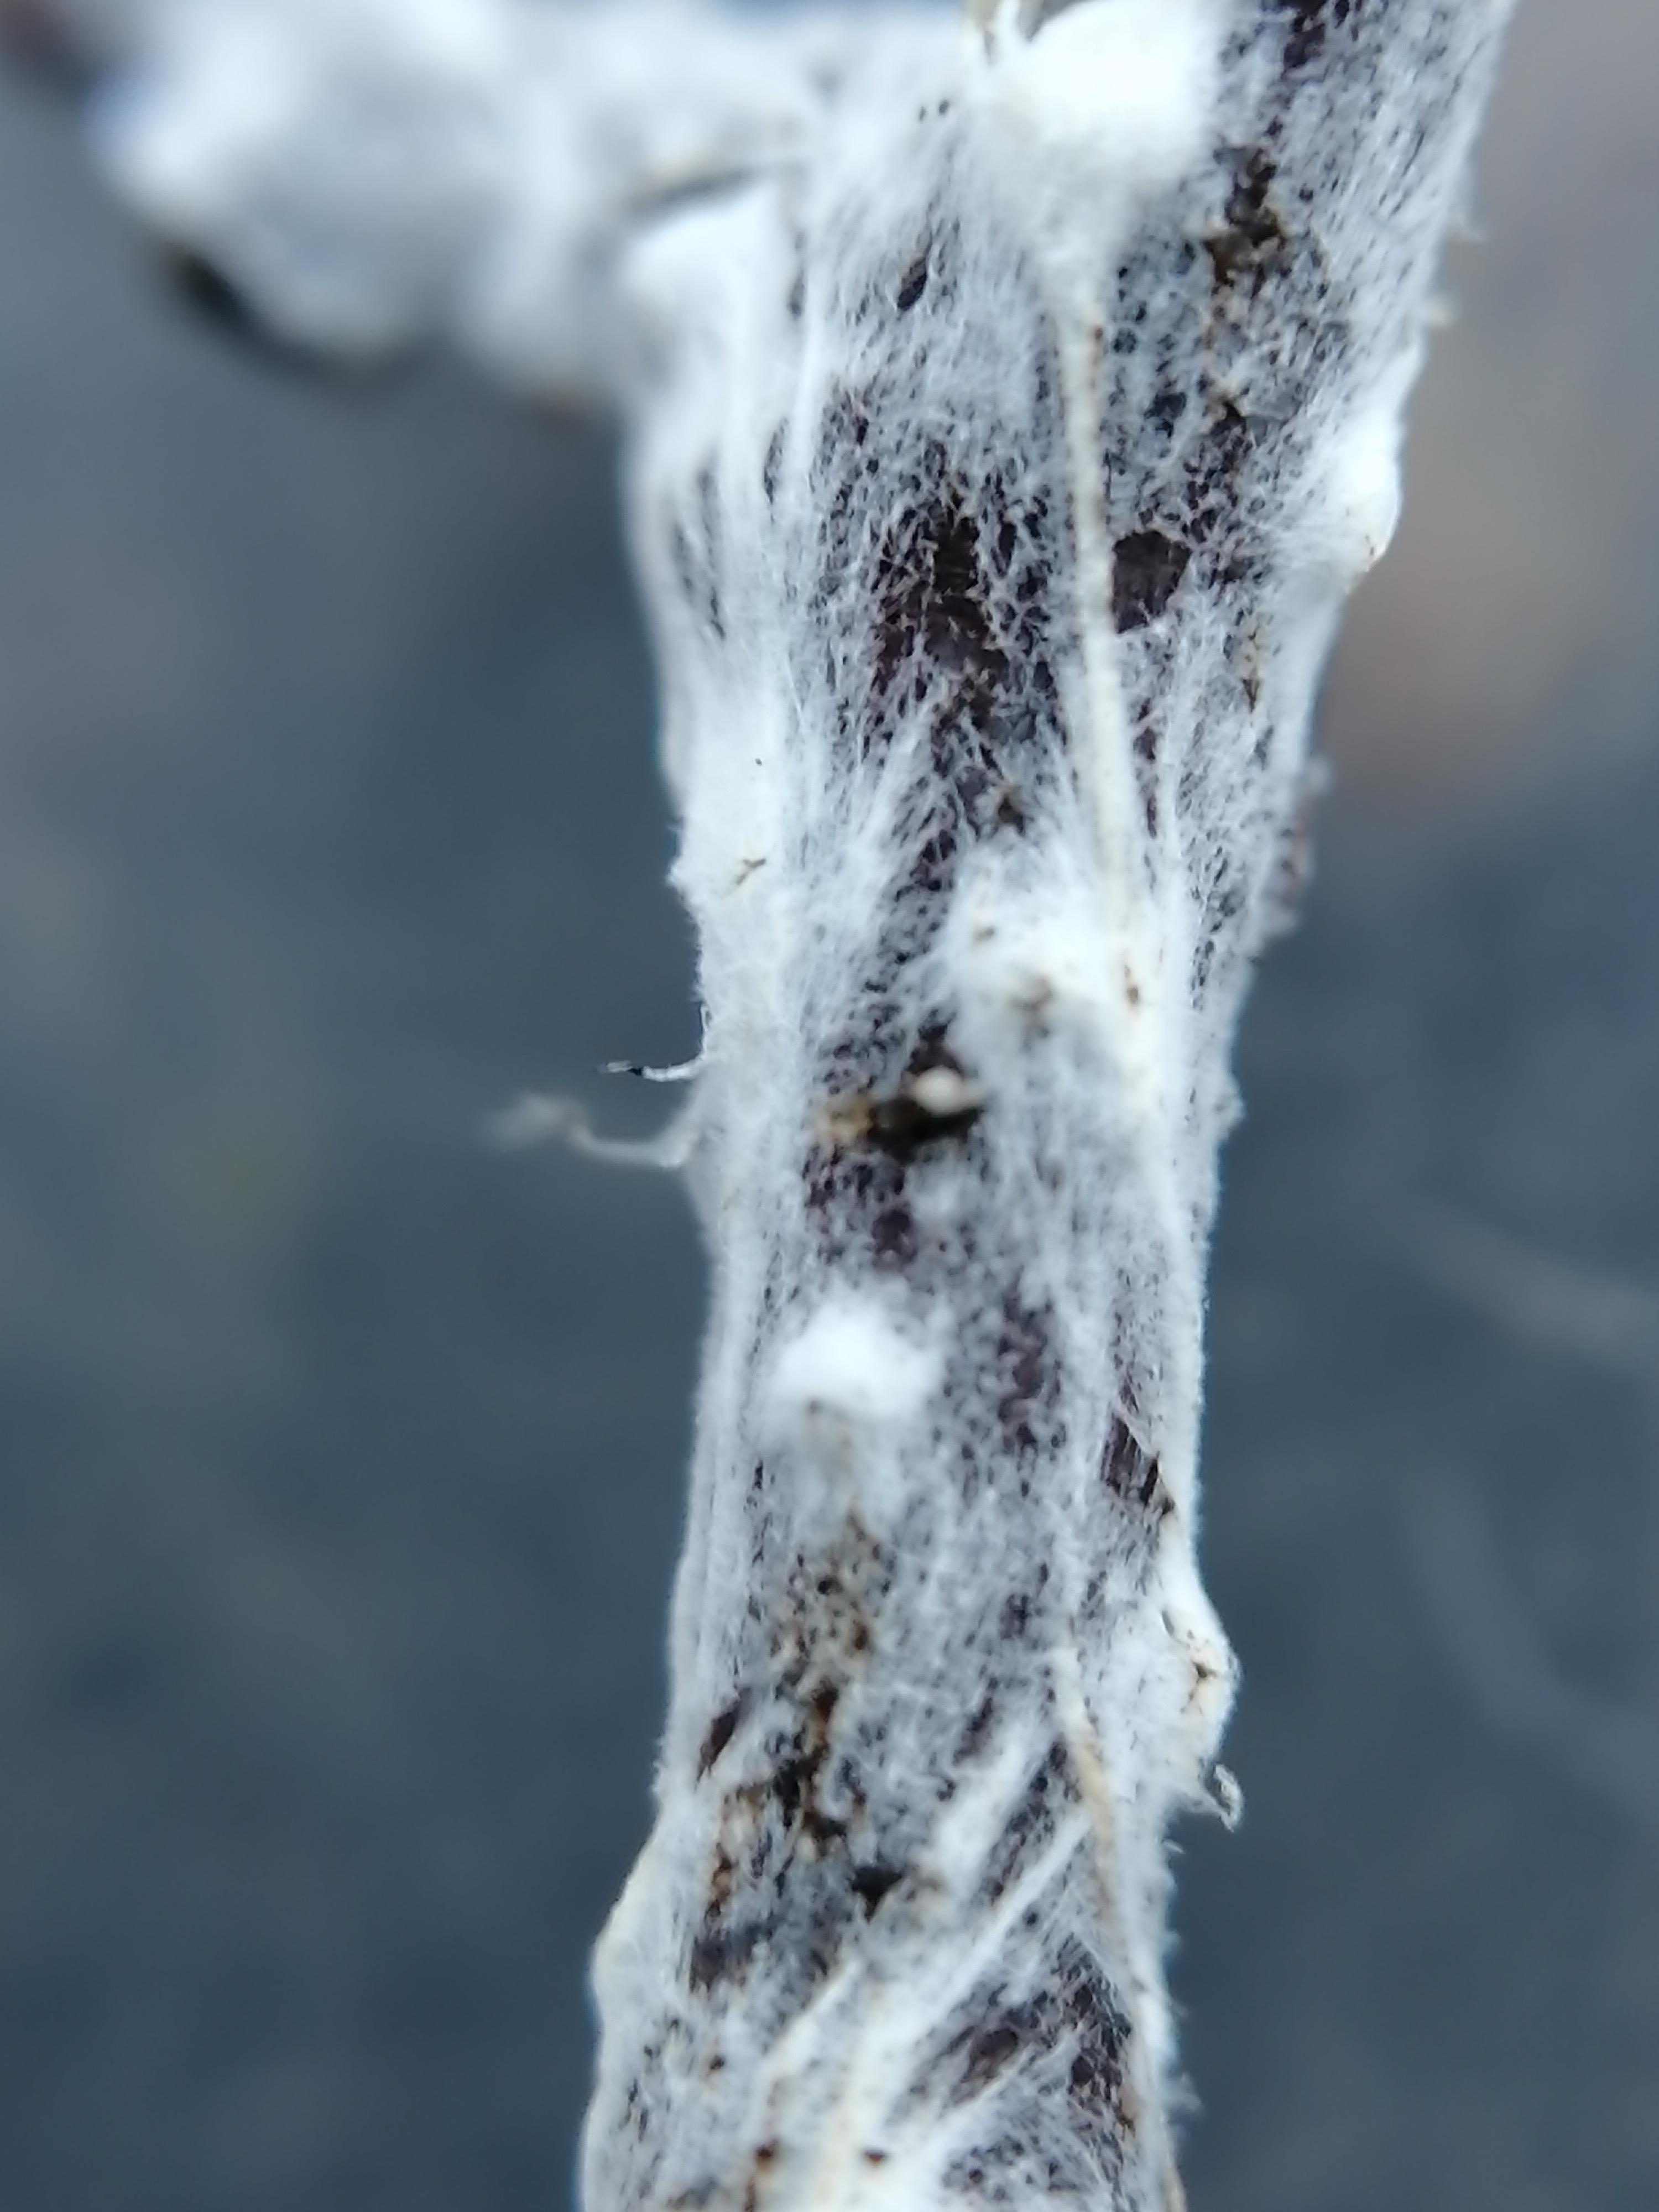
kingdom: Fungi
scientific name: Fungi
